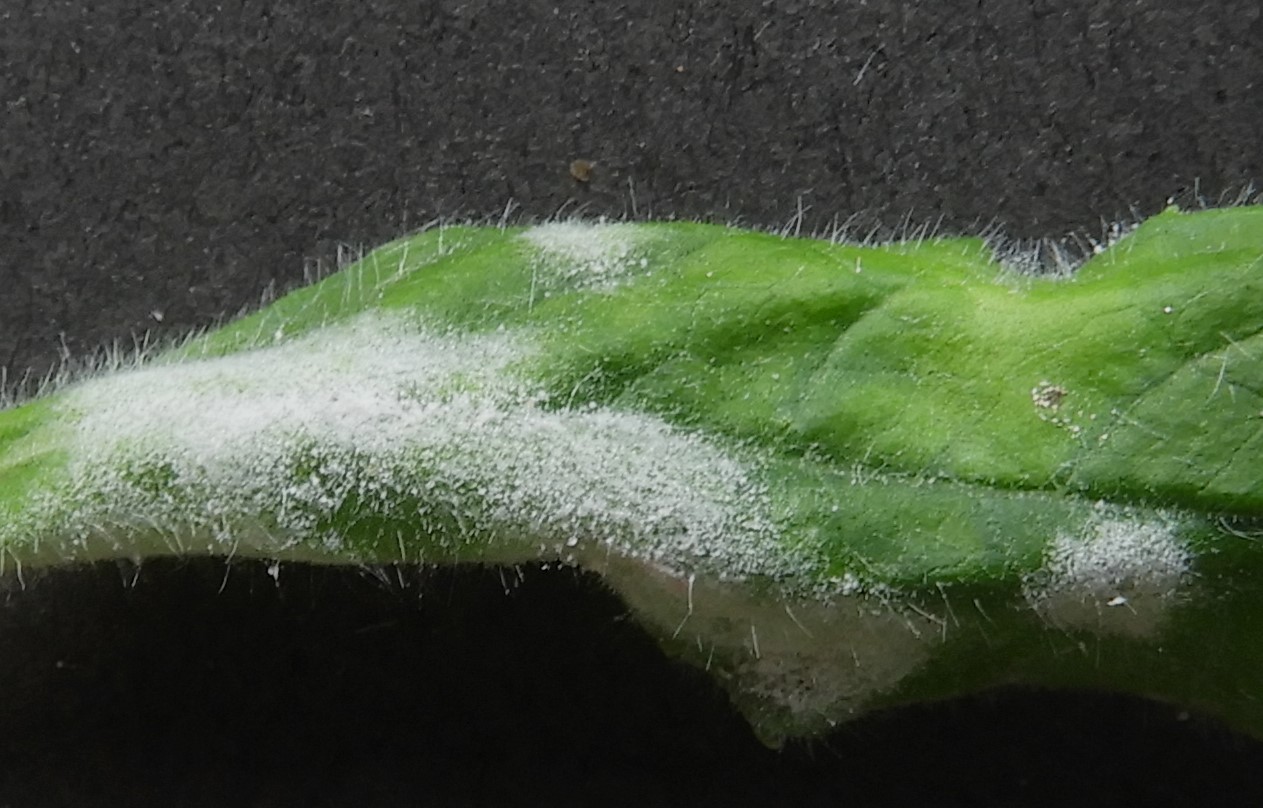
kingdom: Fungi
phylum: Ascomycota
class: Leotiomycetes
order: Helotiales
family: Erysiphaceae
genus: Podosphaera
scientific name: Podosphaera epilobii
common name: dueurt-meldug
